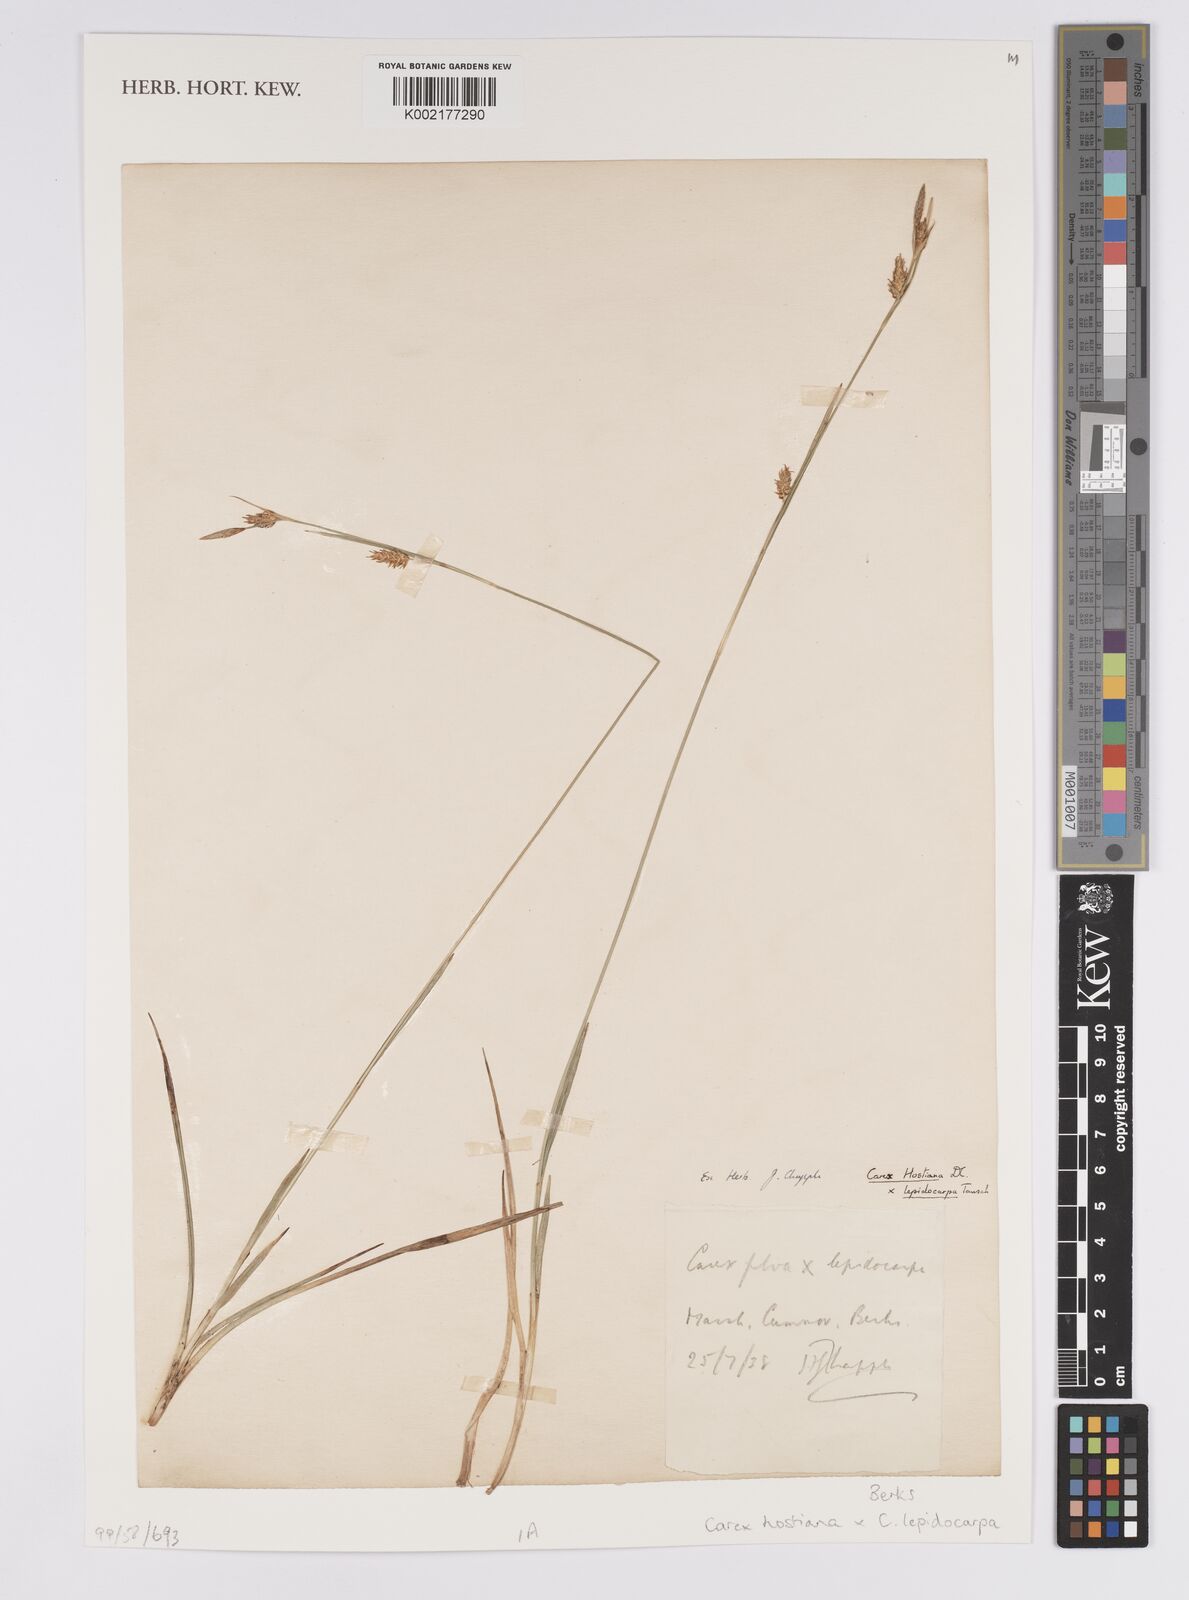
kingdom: Plantae
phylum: Tracheophyta
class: Liliopsida
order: Poales
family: Cyperaceae
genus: Carex
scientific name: Carex hostiana
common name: Tawny sedge
